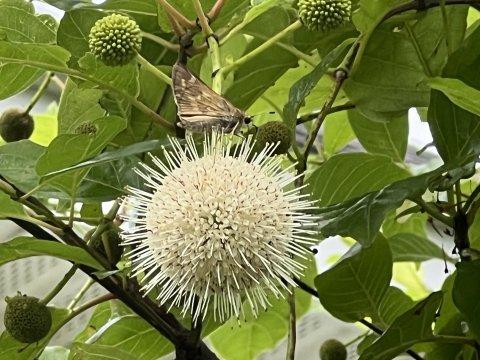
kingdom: Animalia
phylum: Arthropoda
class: Insecta
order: Lepidoptera
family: Hesperiidae
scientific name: Hesperiidae
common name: Skippers
